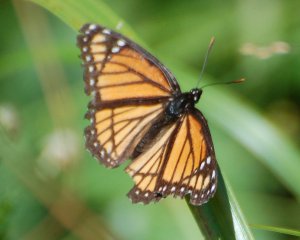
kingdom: Animalia
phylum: Arthropoda
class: Insecta
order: Lepidoptera
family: Nymphalidae
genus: Limenitis
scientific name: Limenitis archippus
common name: Viceroy
